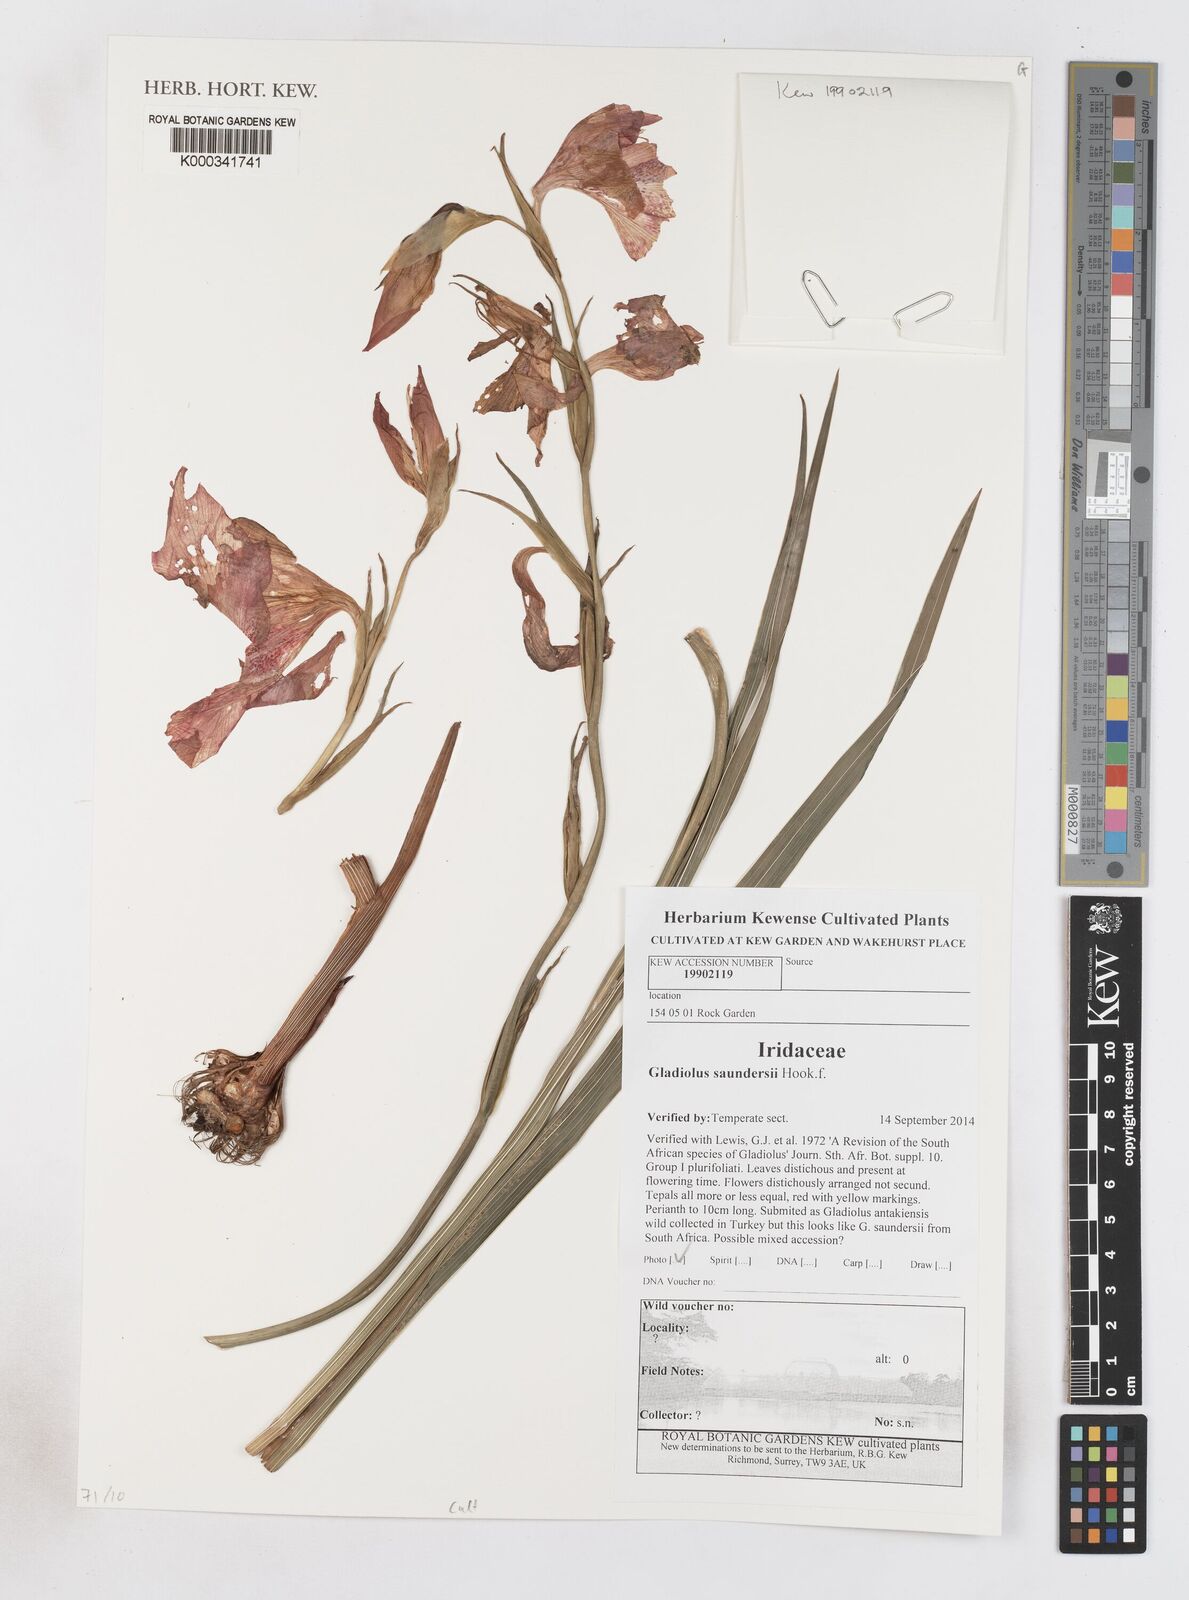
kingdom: Plantae
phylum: Tracheophyta
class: Liliopsida
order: Asparagales
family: Iridaceae
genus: Gladiolus
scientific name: Gladiolus saundersii
